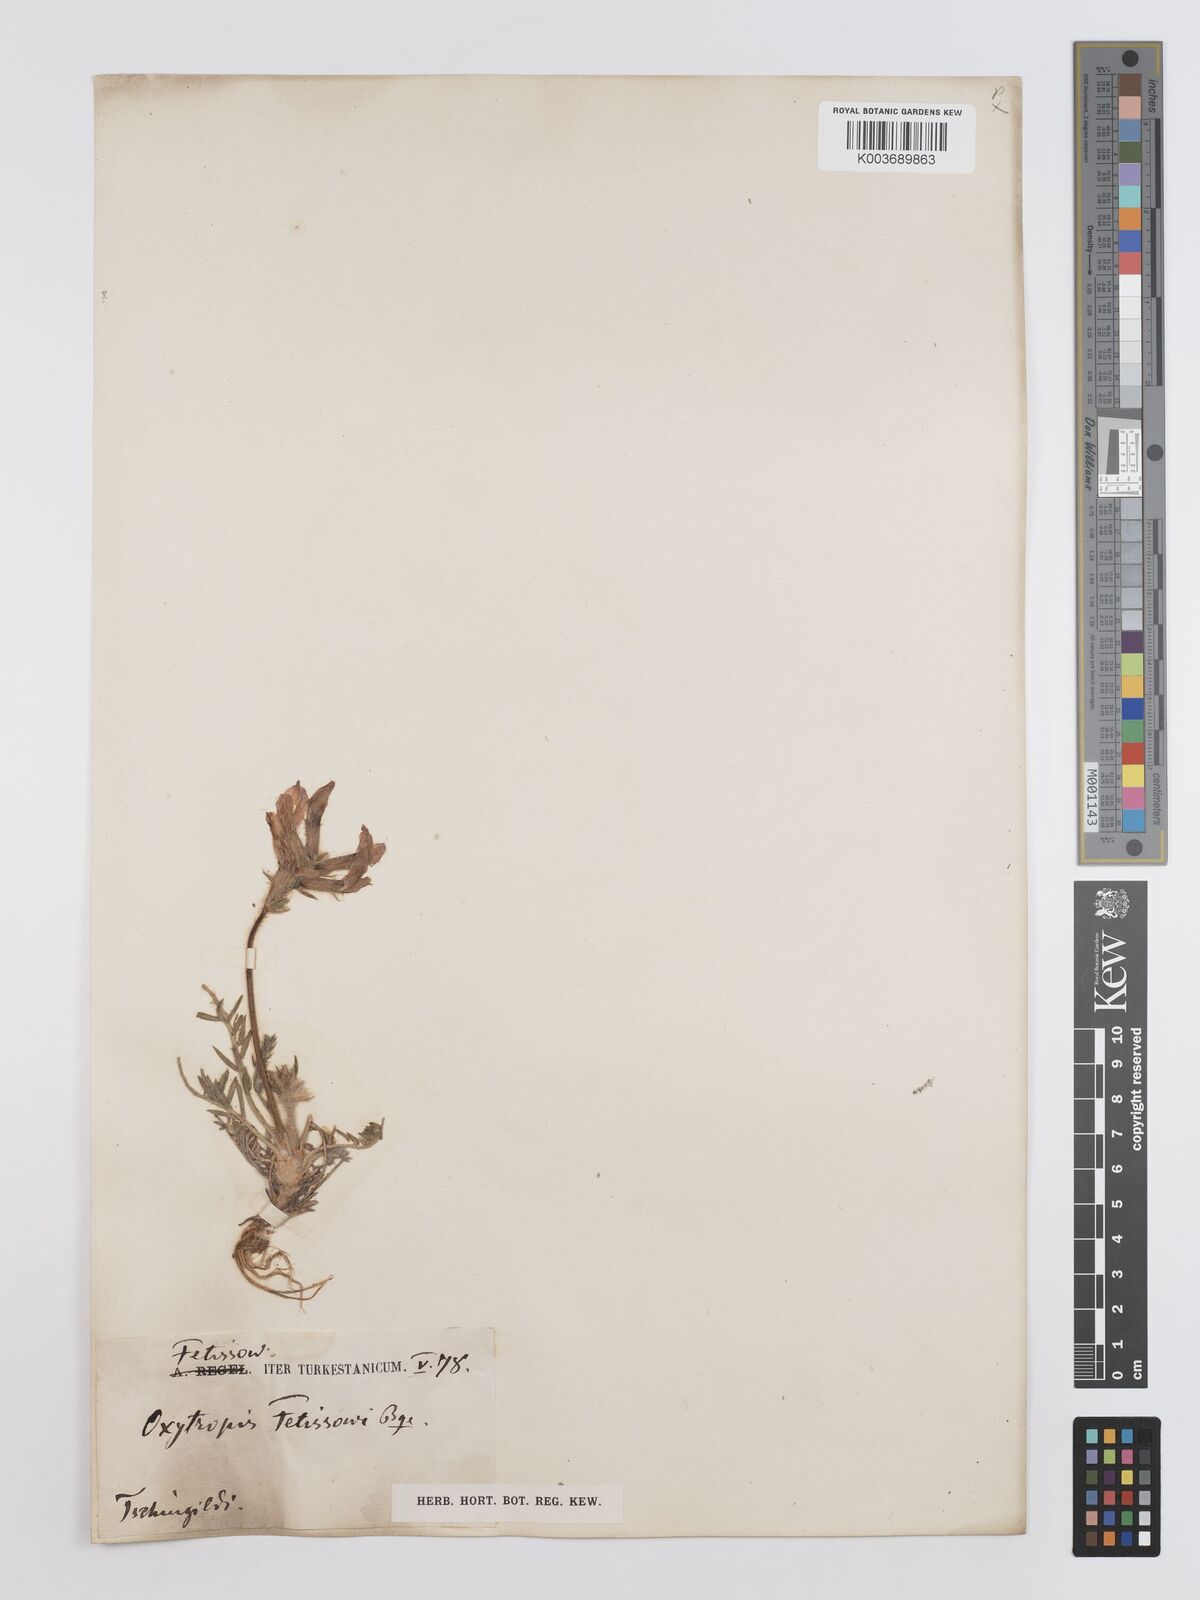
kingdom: Plantae
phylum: Tracheophyta
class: Magnoliopsida
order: Fabales
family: Fabaceae
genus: Oxytropis
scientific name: Oxytropis fetisowii
